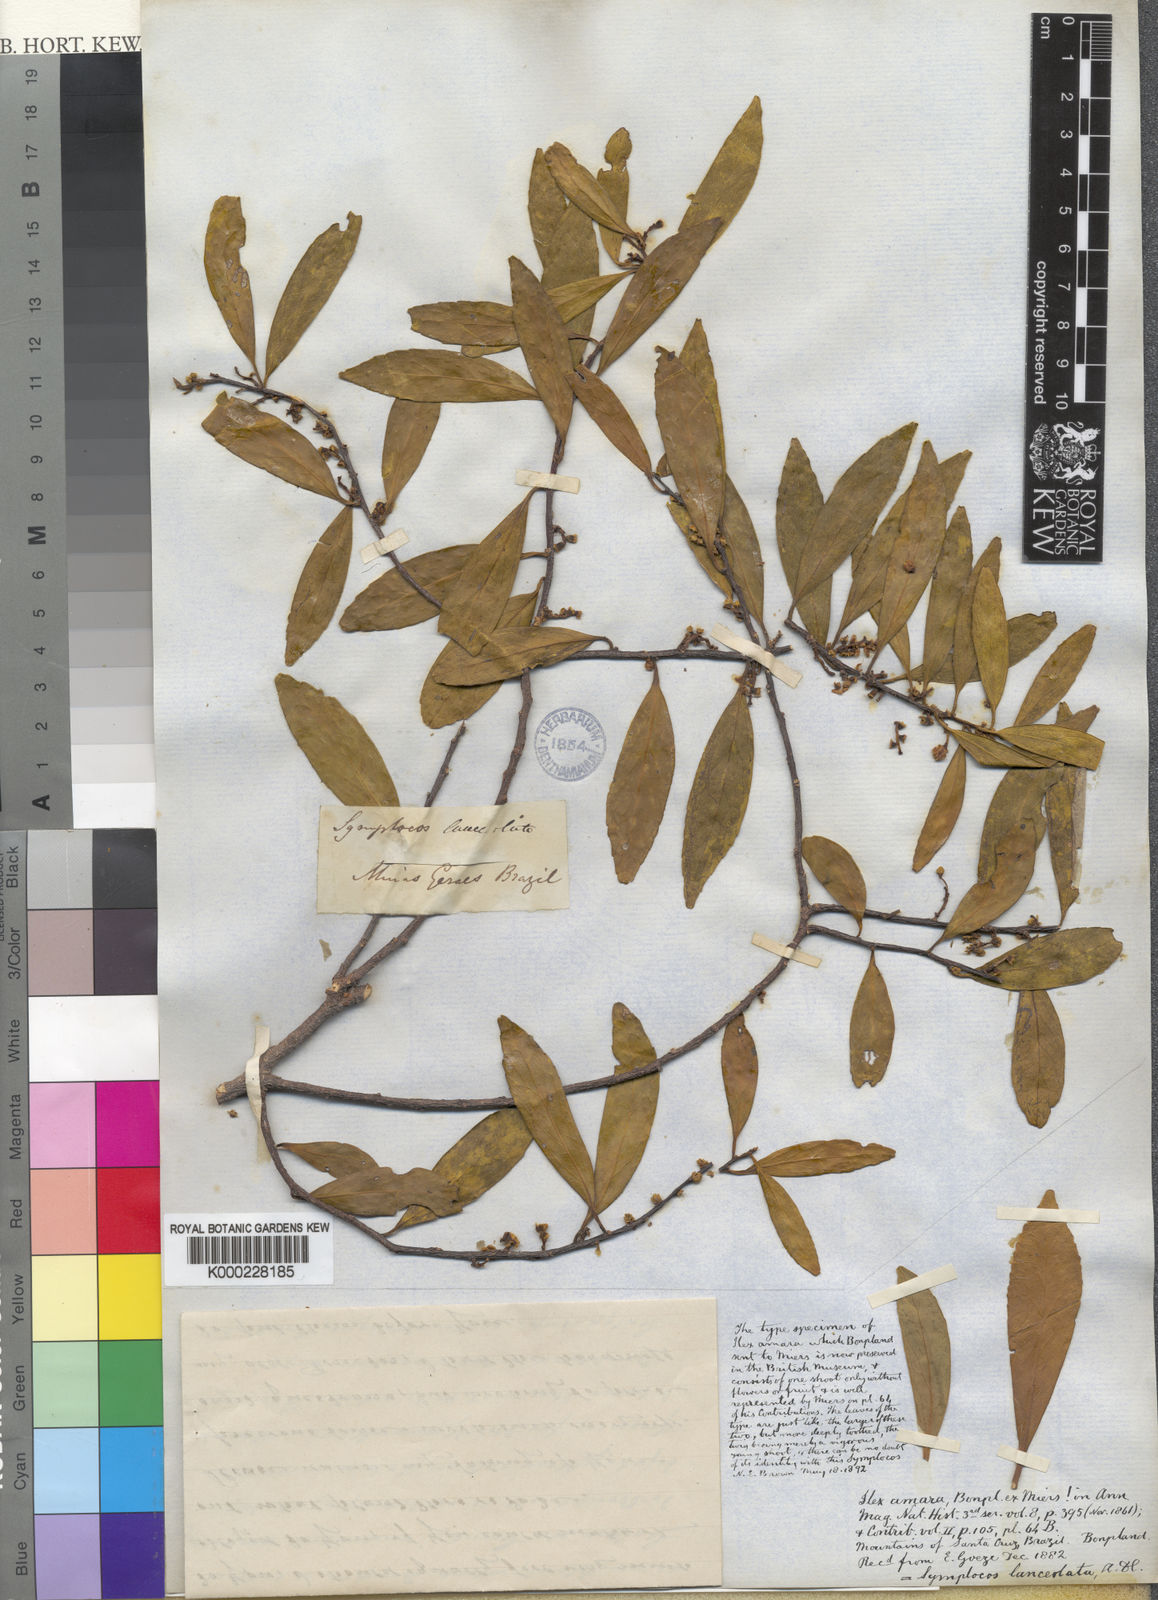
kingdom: Plantae
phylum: Tracheophyta
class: Magnoliopsida
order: Ericales
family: Symplocaceae
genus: Symplocos
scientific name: Symplocos oblongifolia
